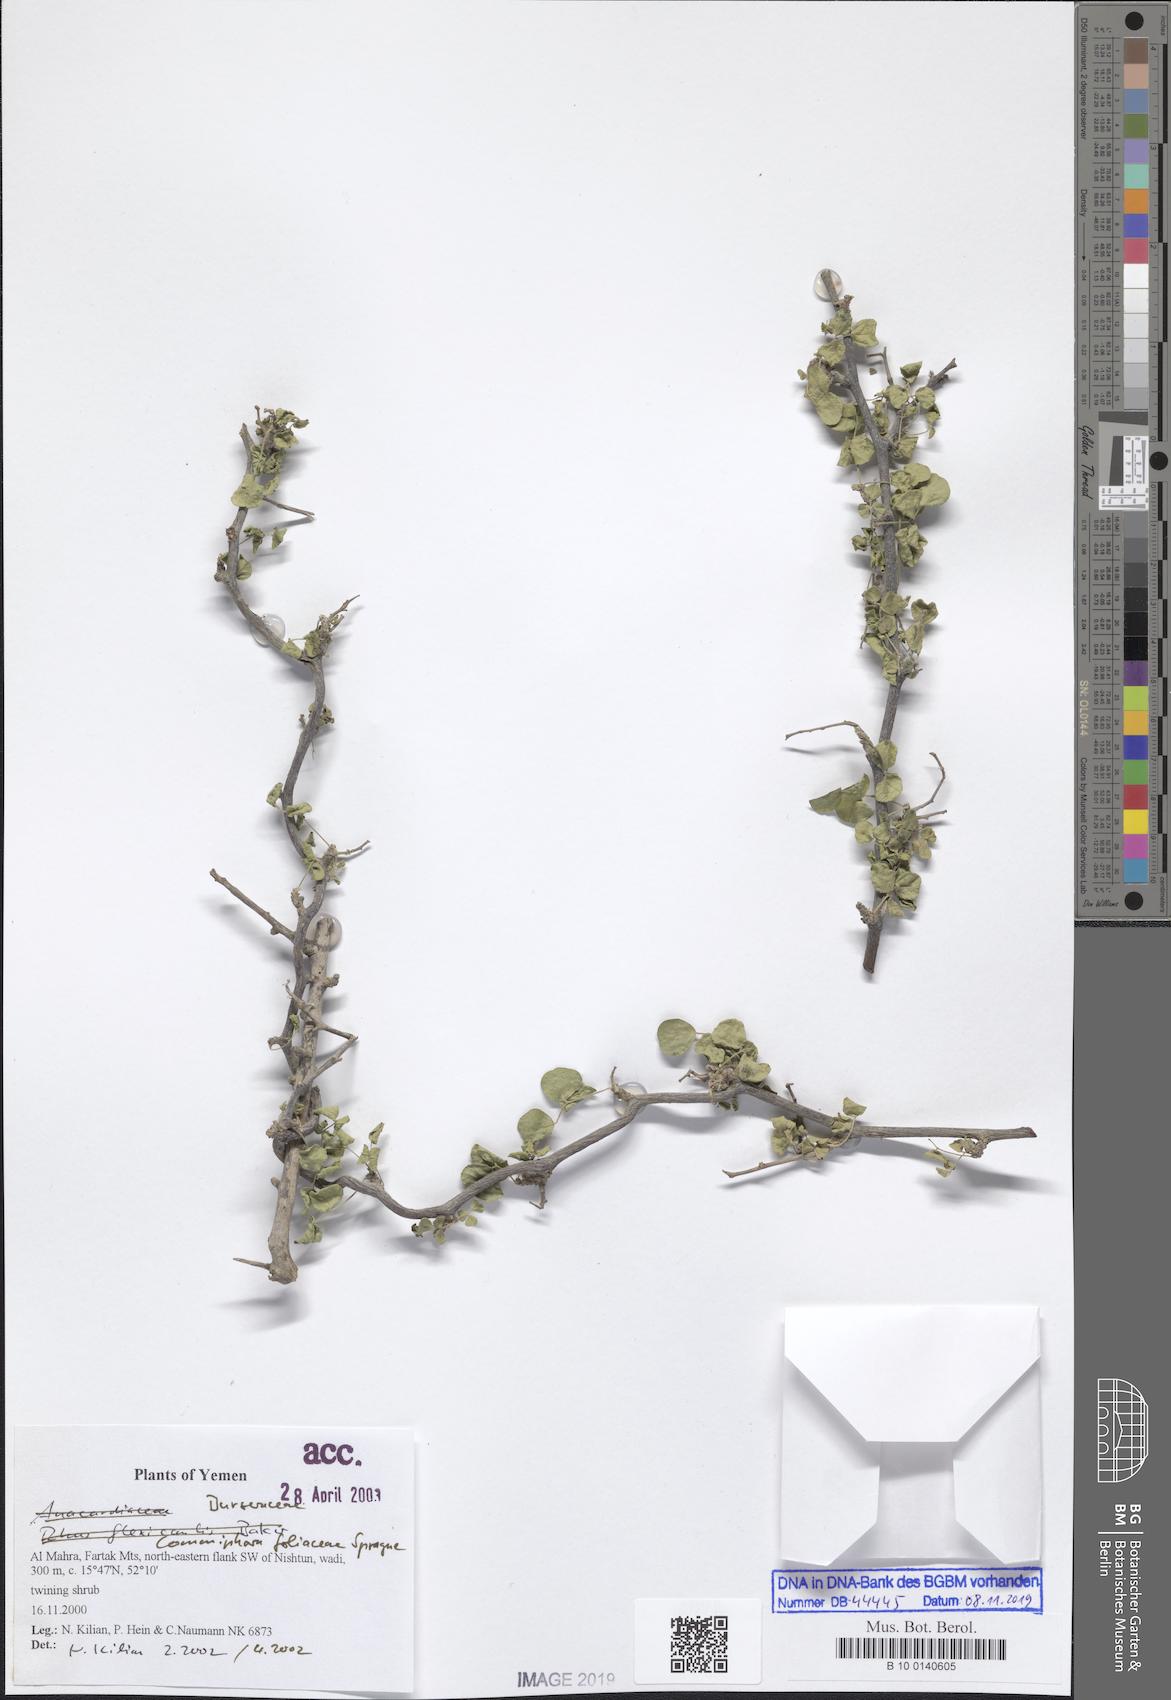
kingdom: Plantae
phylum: Tracheophyta
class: Magnoliopsida
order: Fabales
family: Fabaceae
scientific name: Fabaceae
